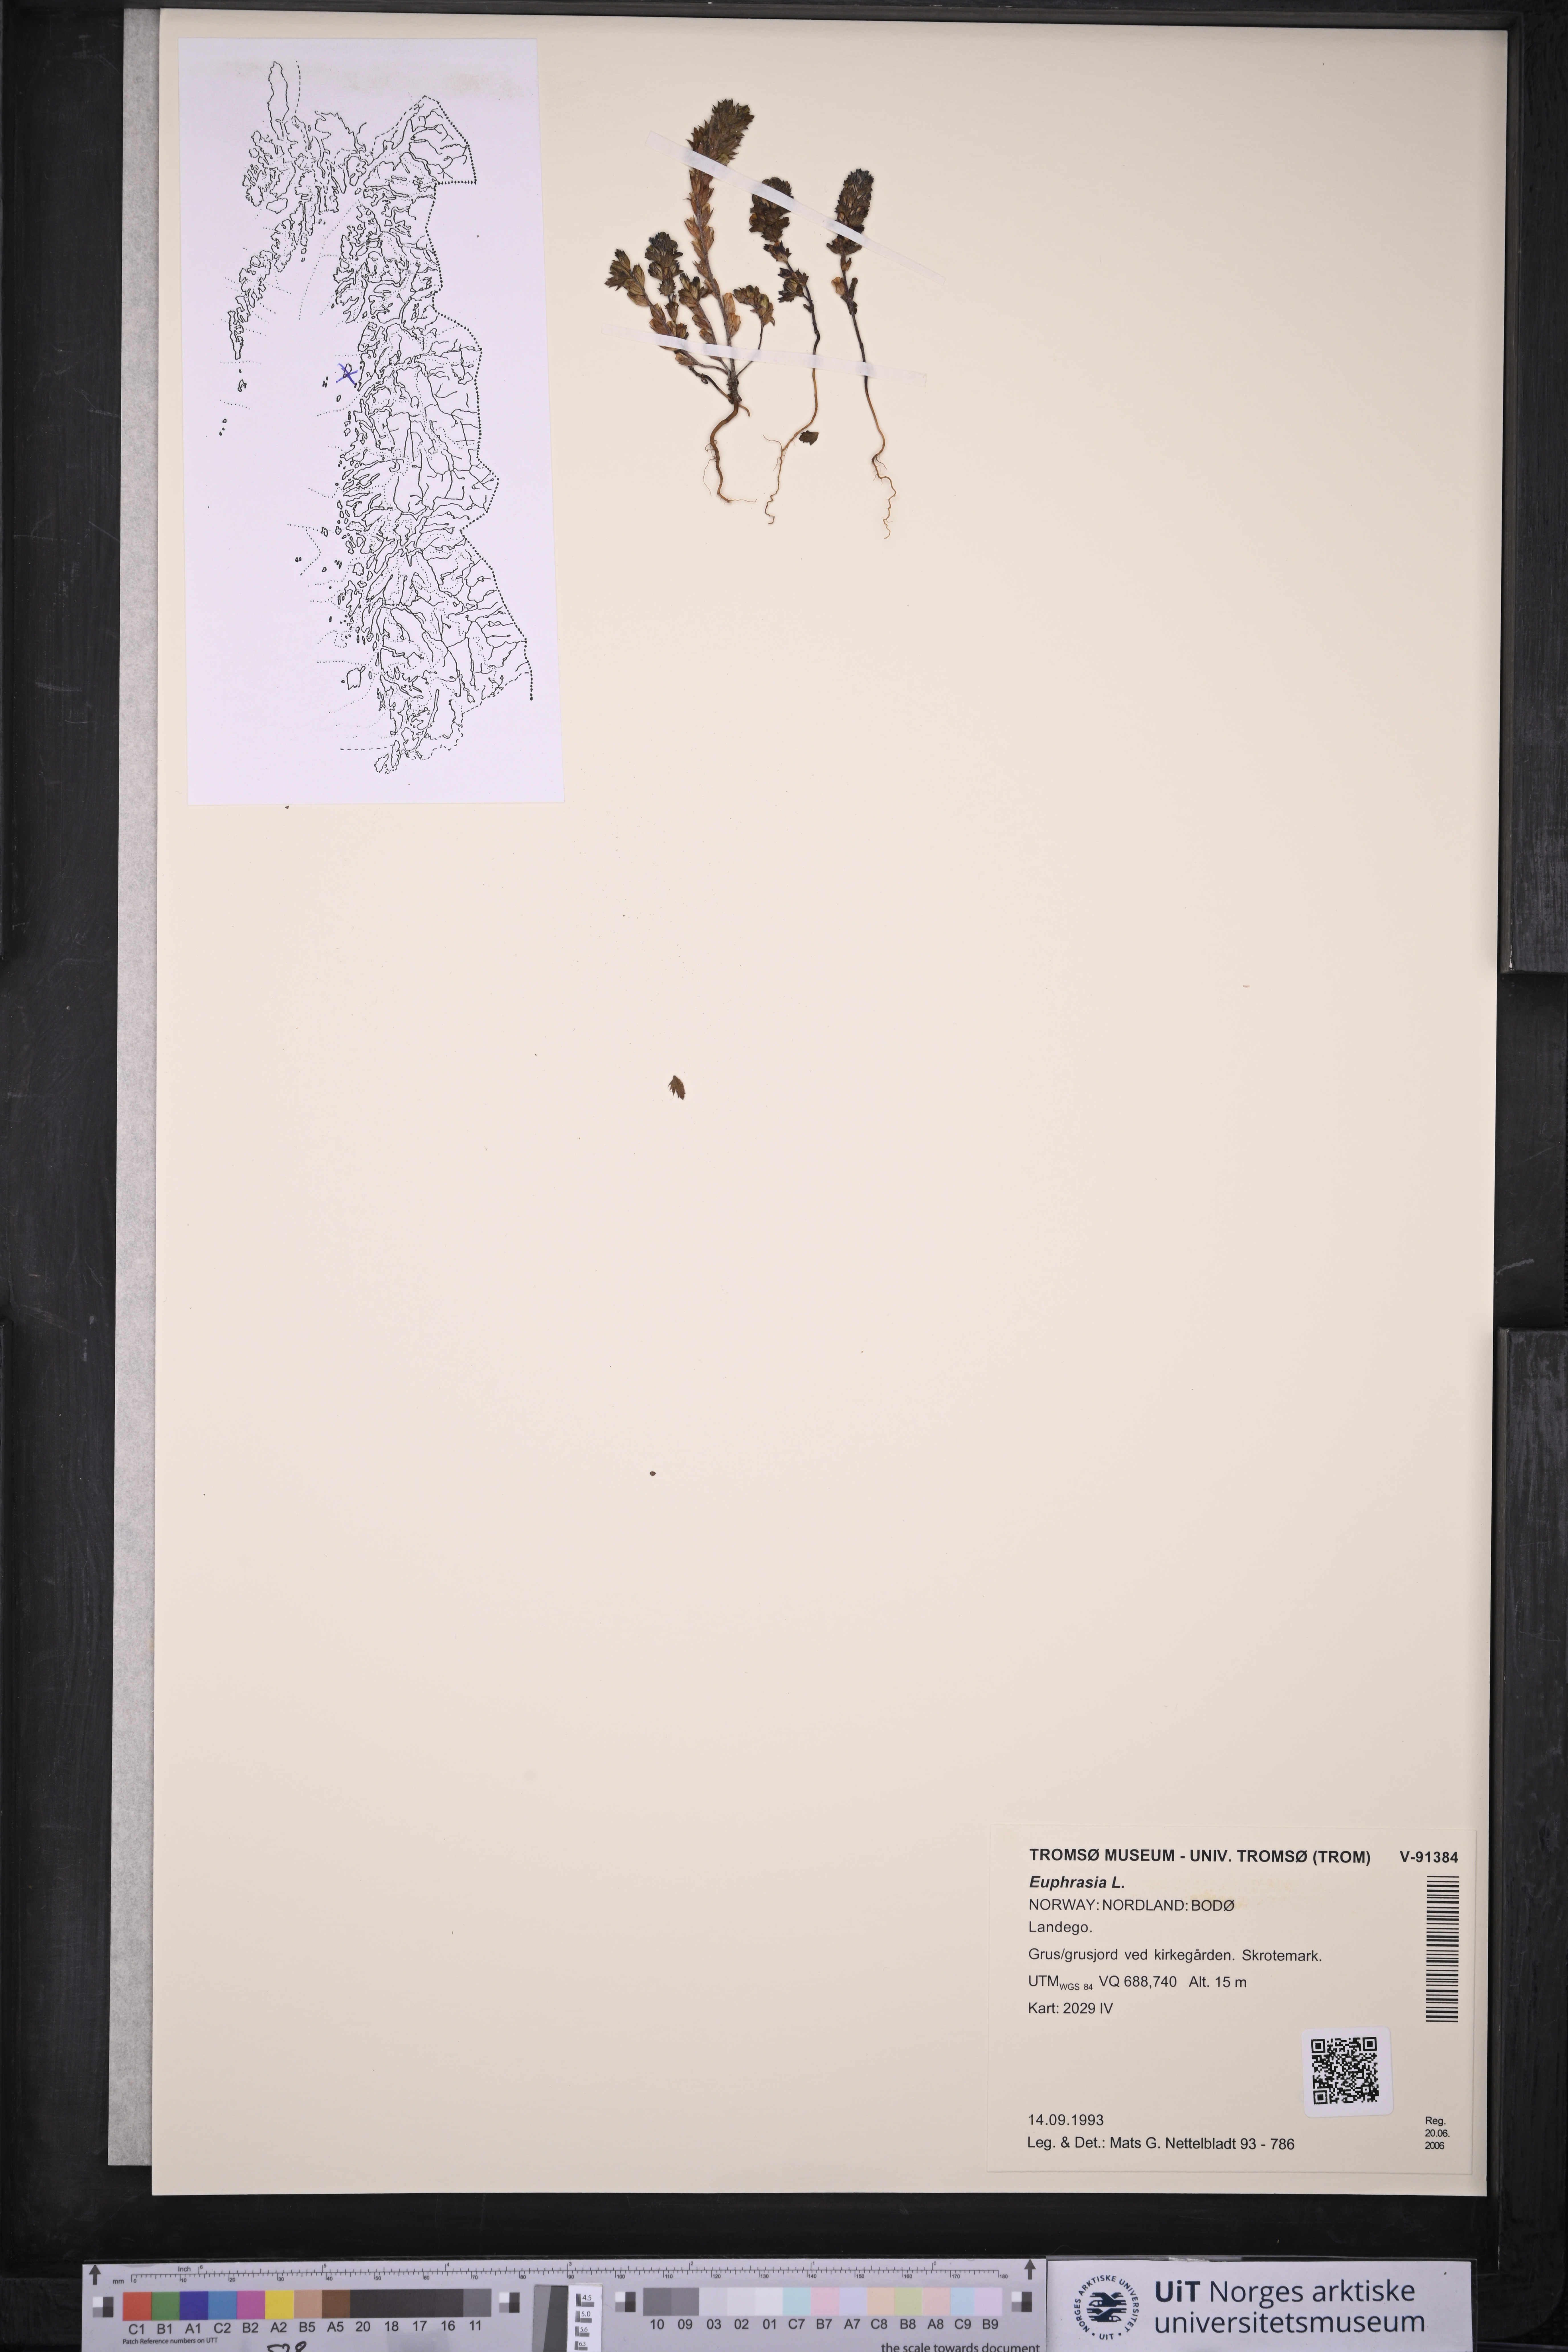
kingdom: Plantae
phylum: Tracheophyta
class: Magnoliopsida
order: Lamiales
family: Orobanchaceae
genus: Euphrasia
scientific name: Euphrasia
